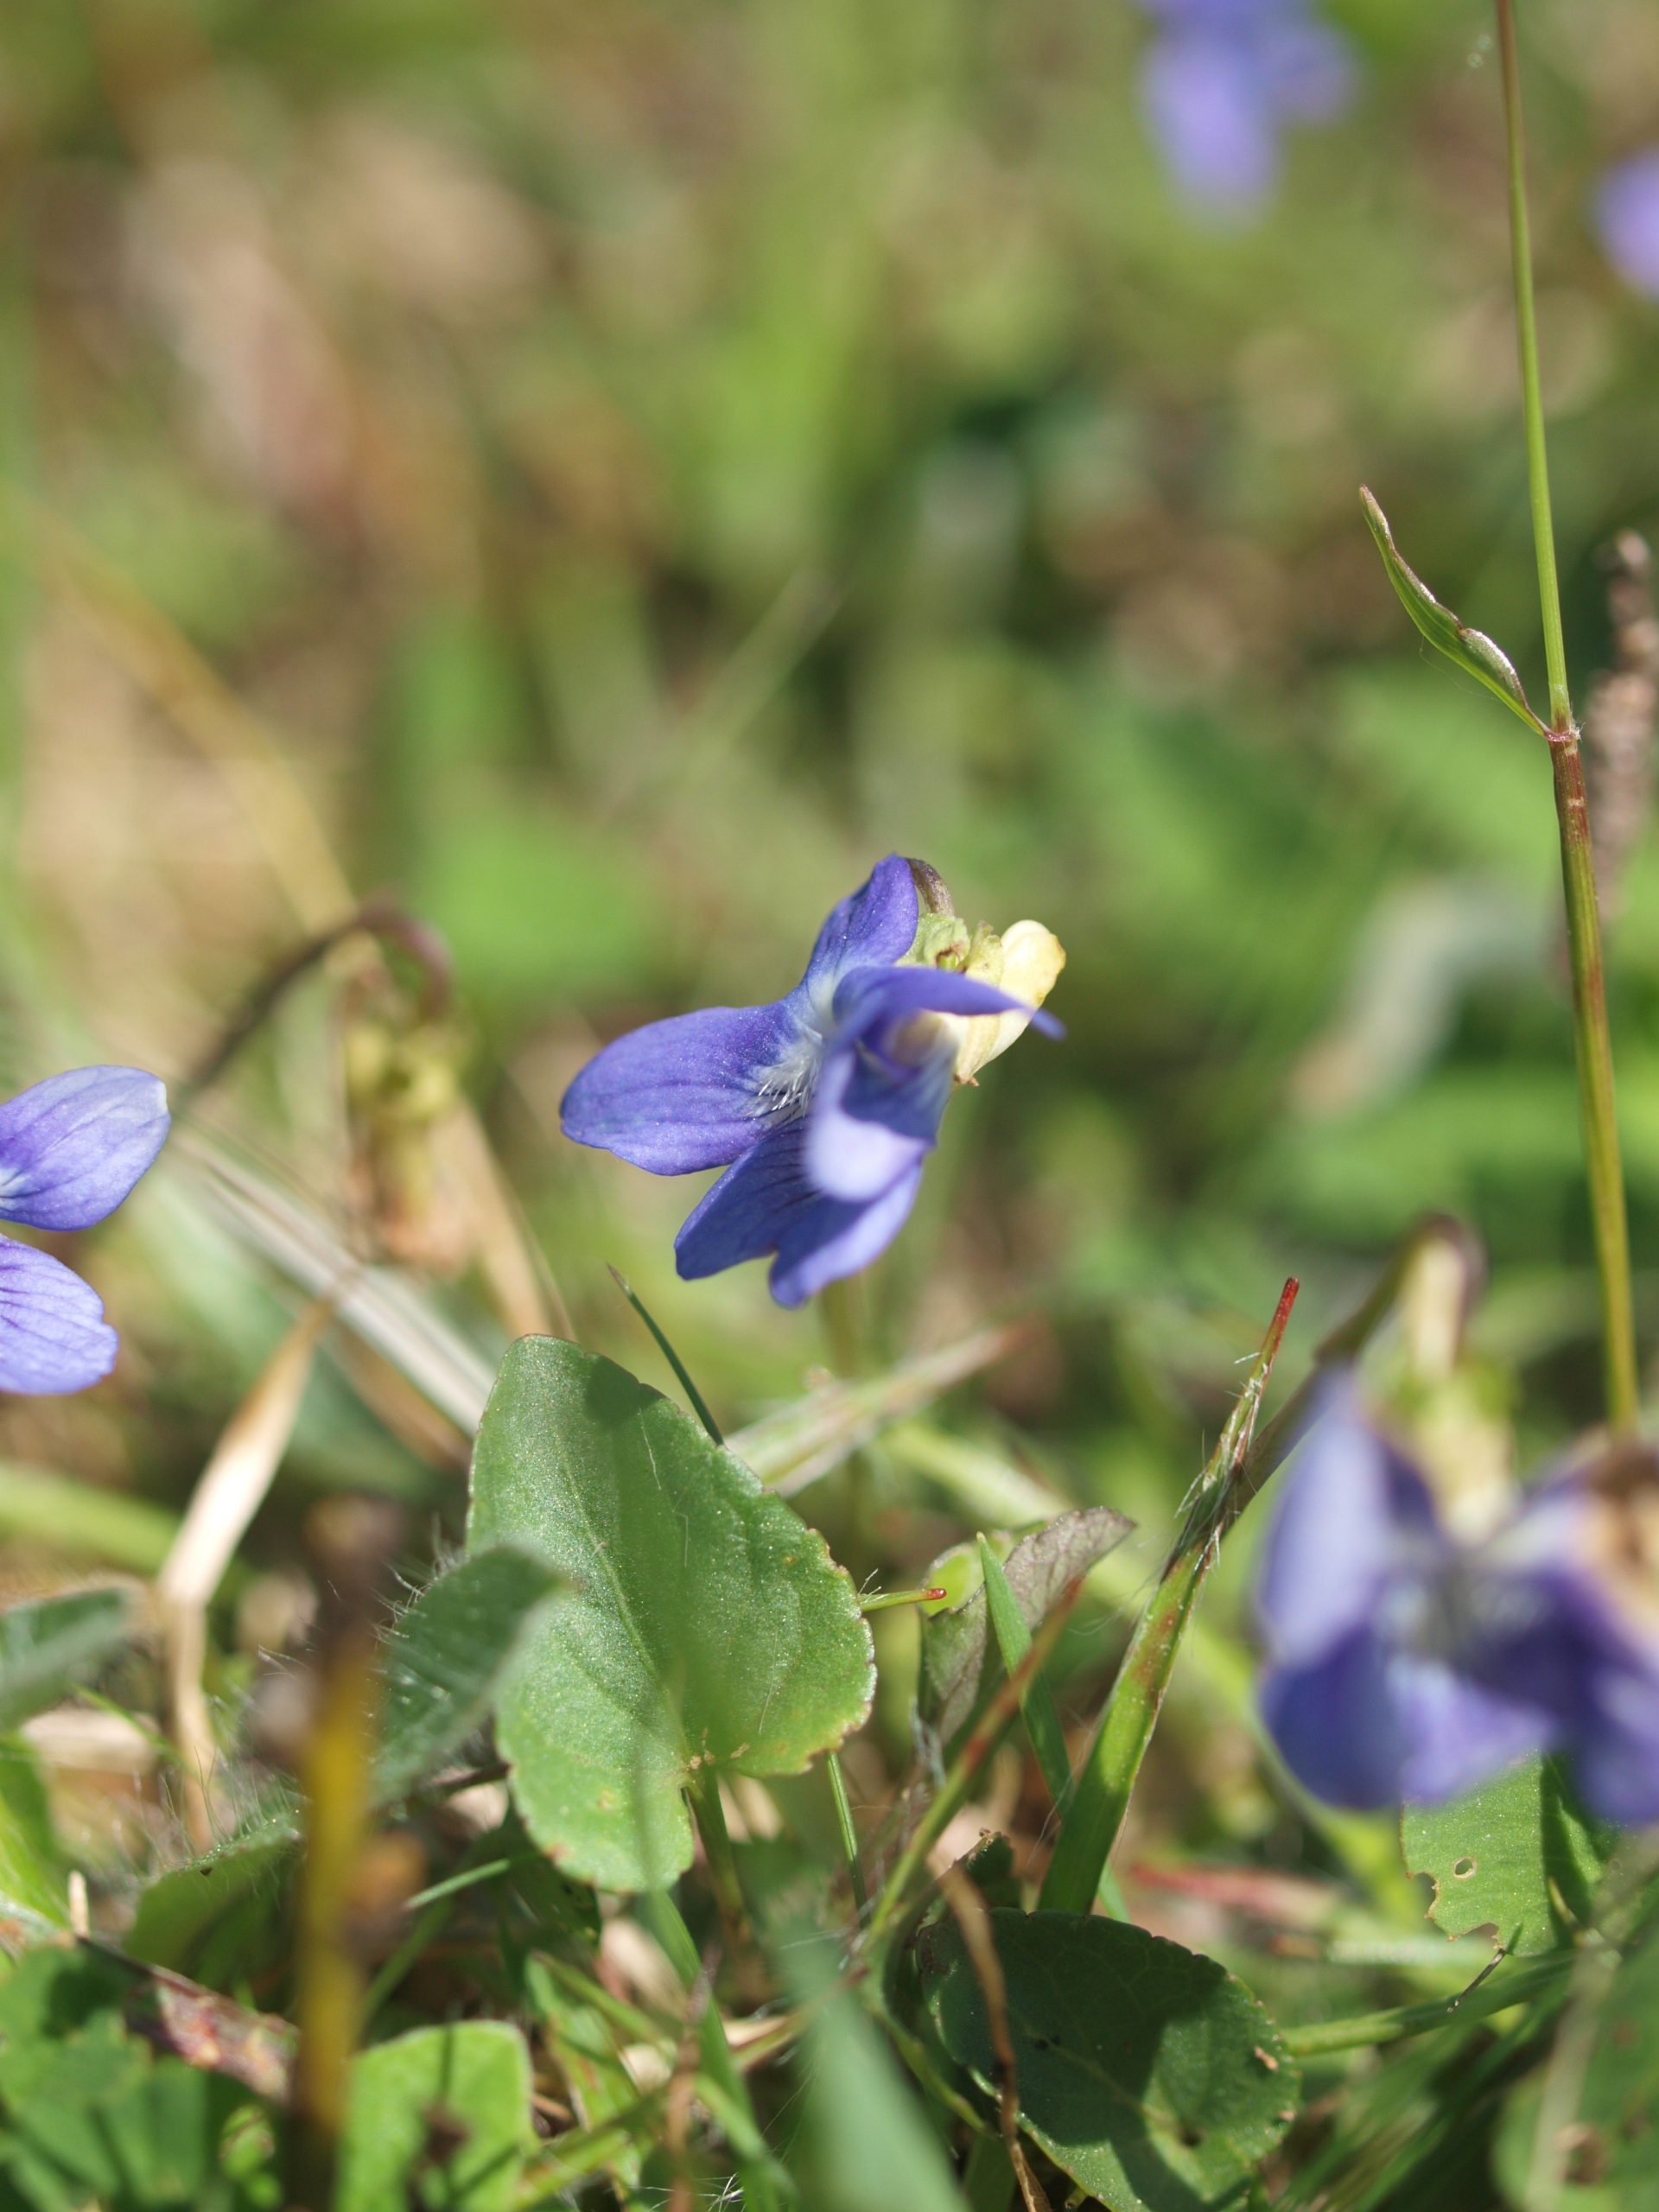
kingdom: Plantae
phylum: Tracheophyta
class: Magnoliopsida
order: Malpighiales
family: Violaceae
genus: Viola
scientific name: Viola canina
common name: Hunde-viol
